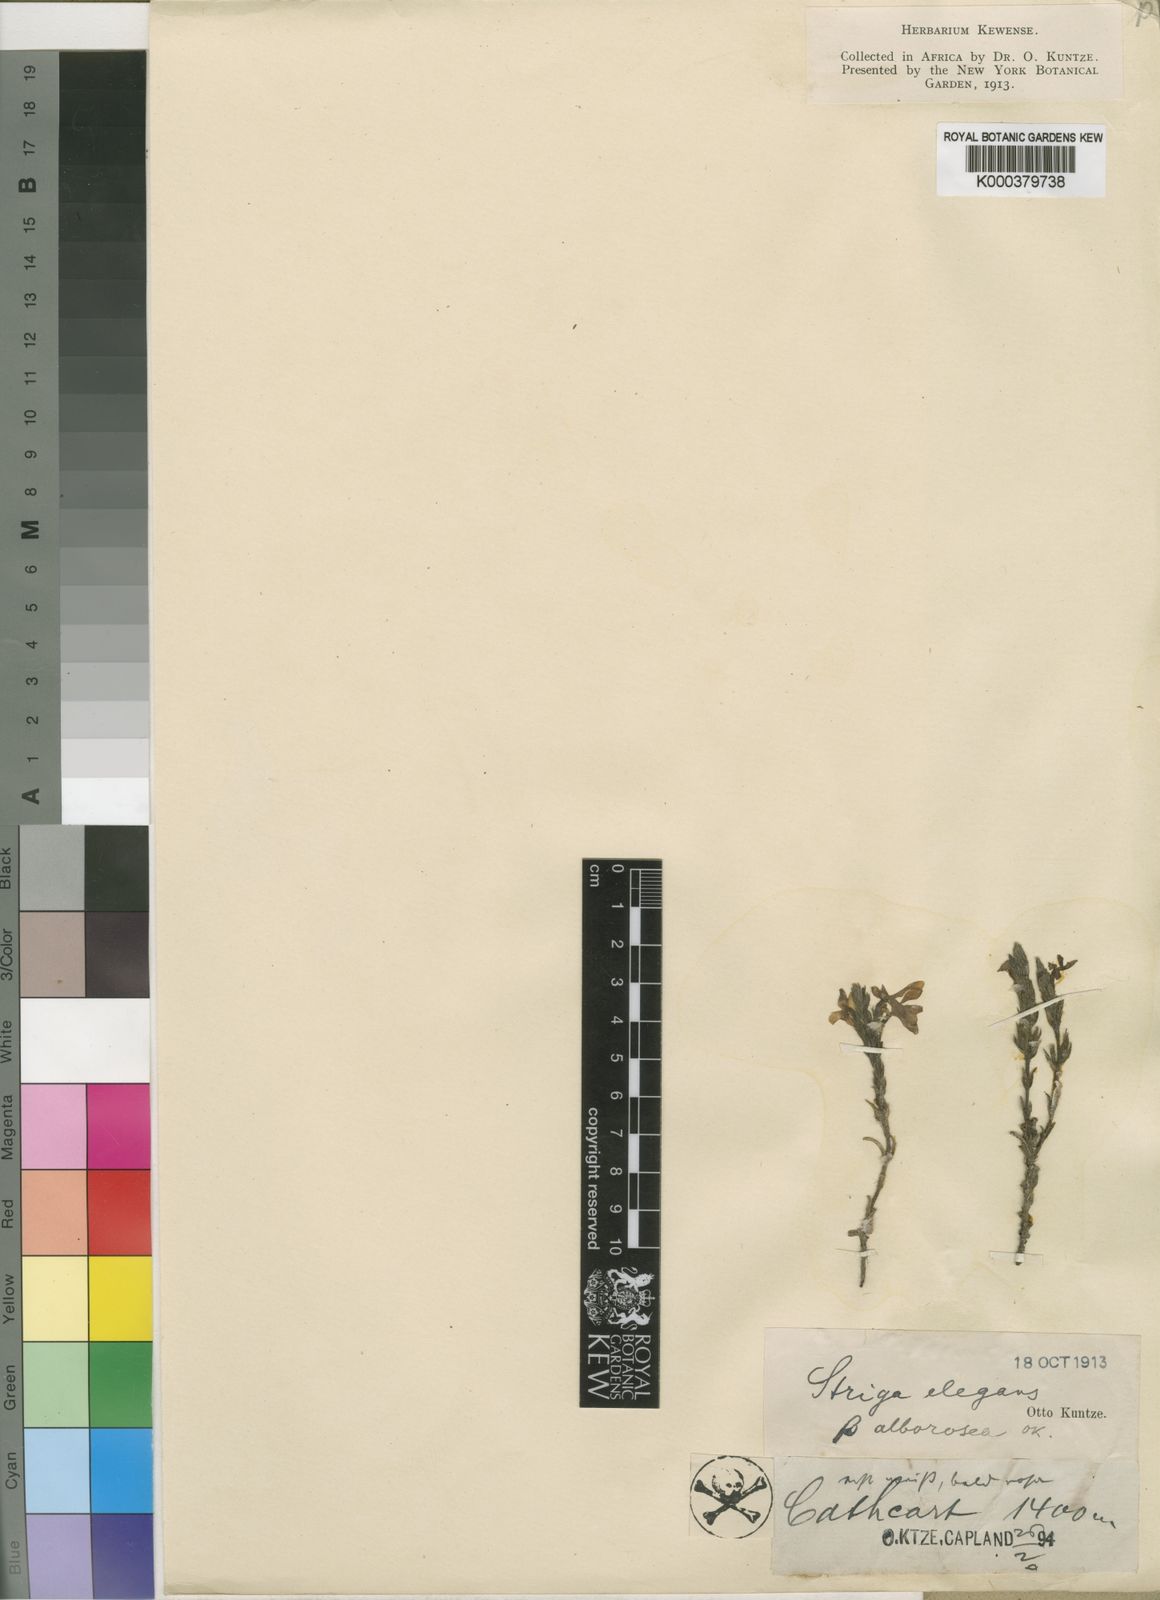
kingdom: Plantae
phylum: Tracheophyta
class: Magnoliopsida
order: Lamiales
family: Orobanchaceae
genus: Striga
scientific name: Striga elegans
